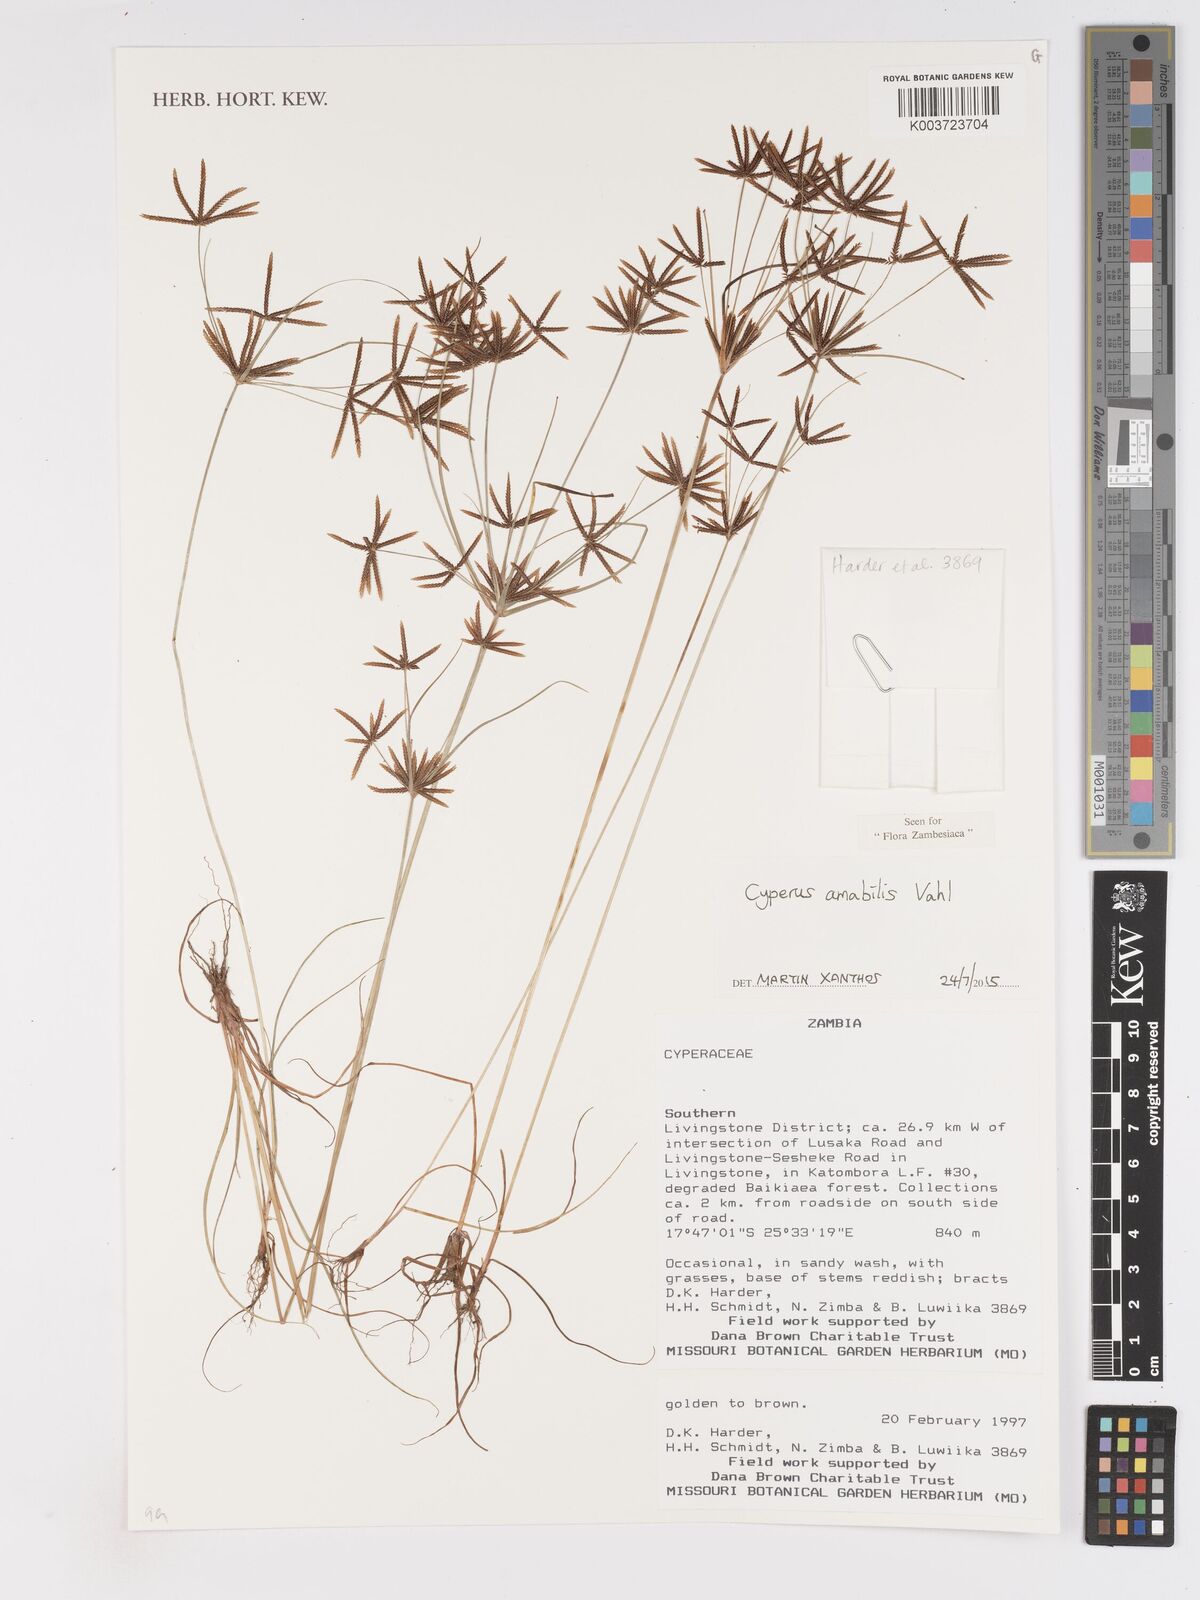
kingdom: Plantae
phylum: Tracheophyta
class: Liliopsida
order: Poales
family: Cyperaceae
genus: Cyperus
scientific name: Cyperus amabilis
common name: Foothill flat sedge
